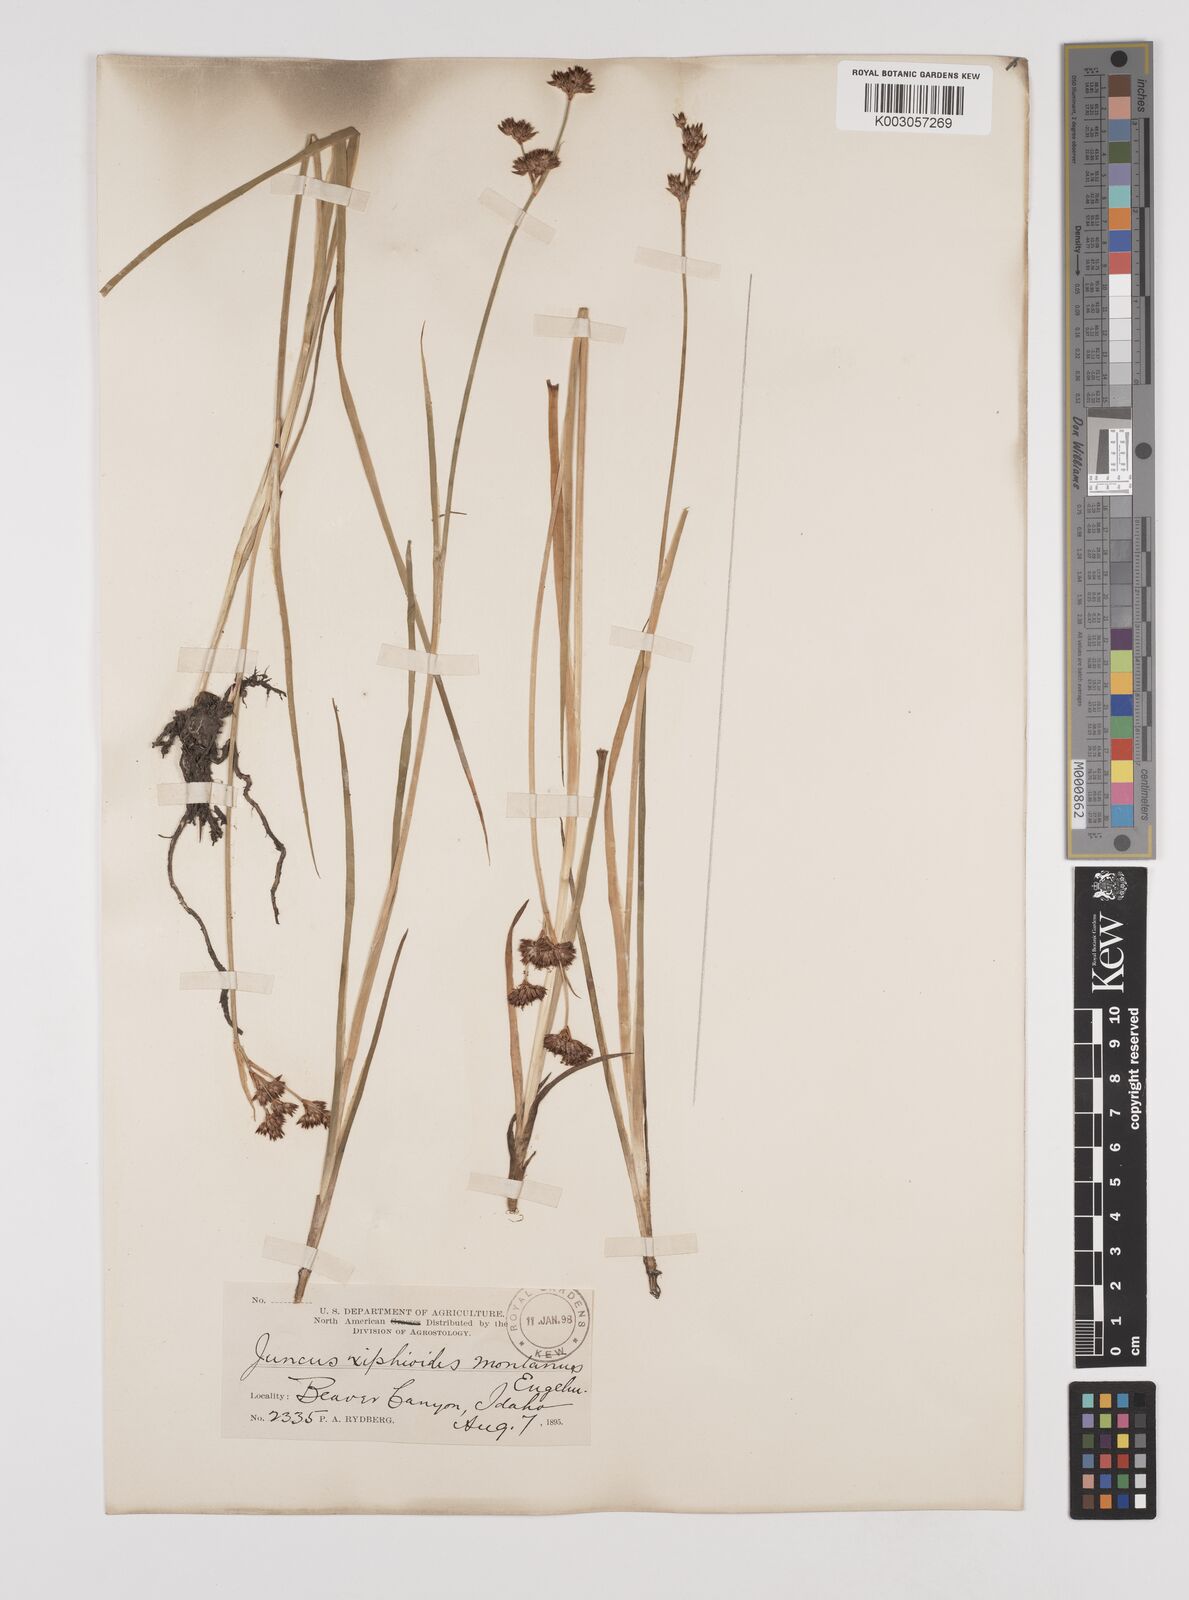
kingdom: Plantae
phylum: Tracheophyta
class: Liliopsida
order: Poales
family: Juncaceae
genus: Juncus
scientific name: Juncus xiphioides
